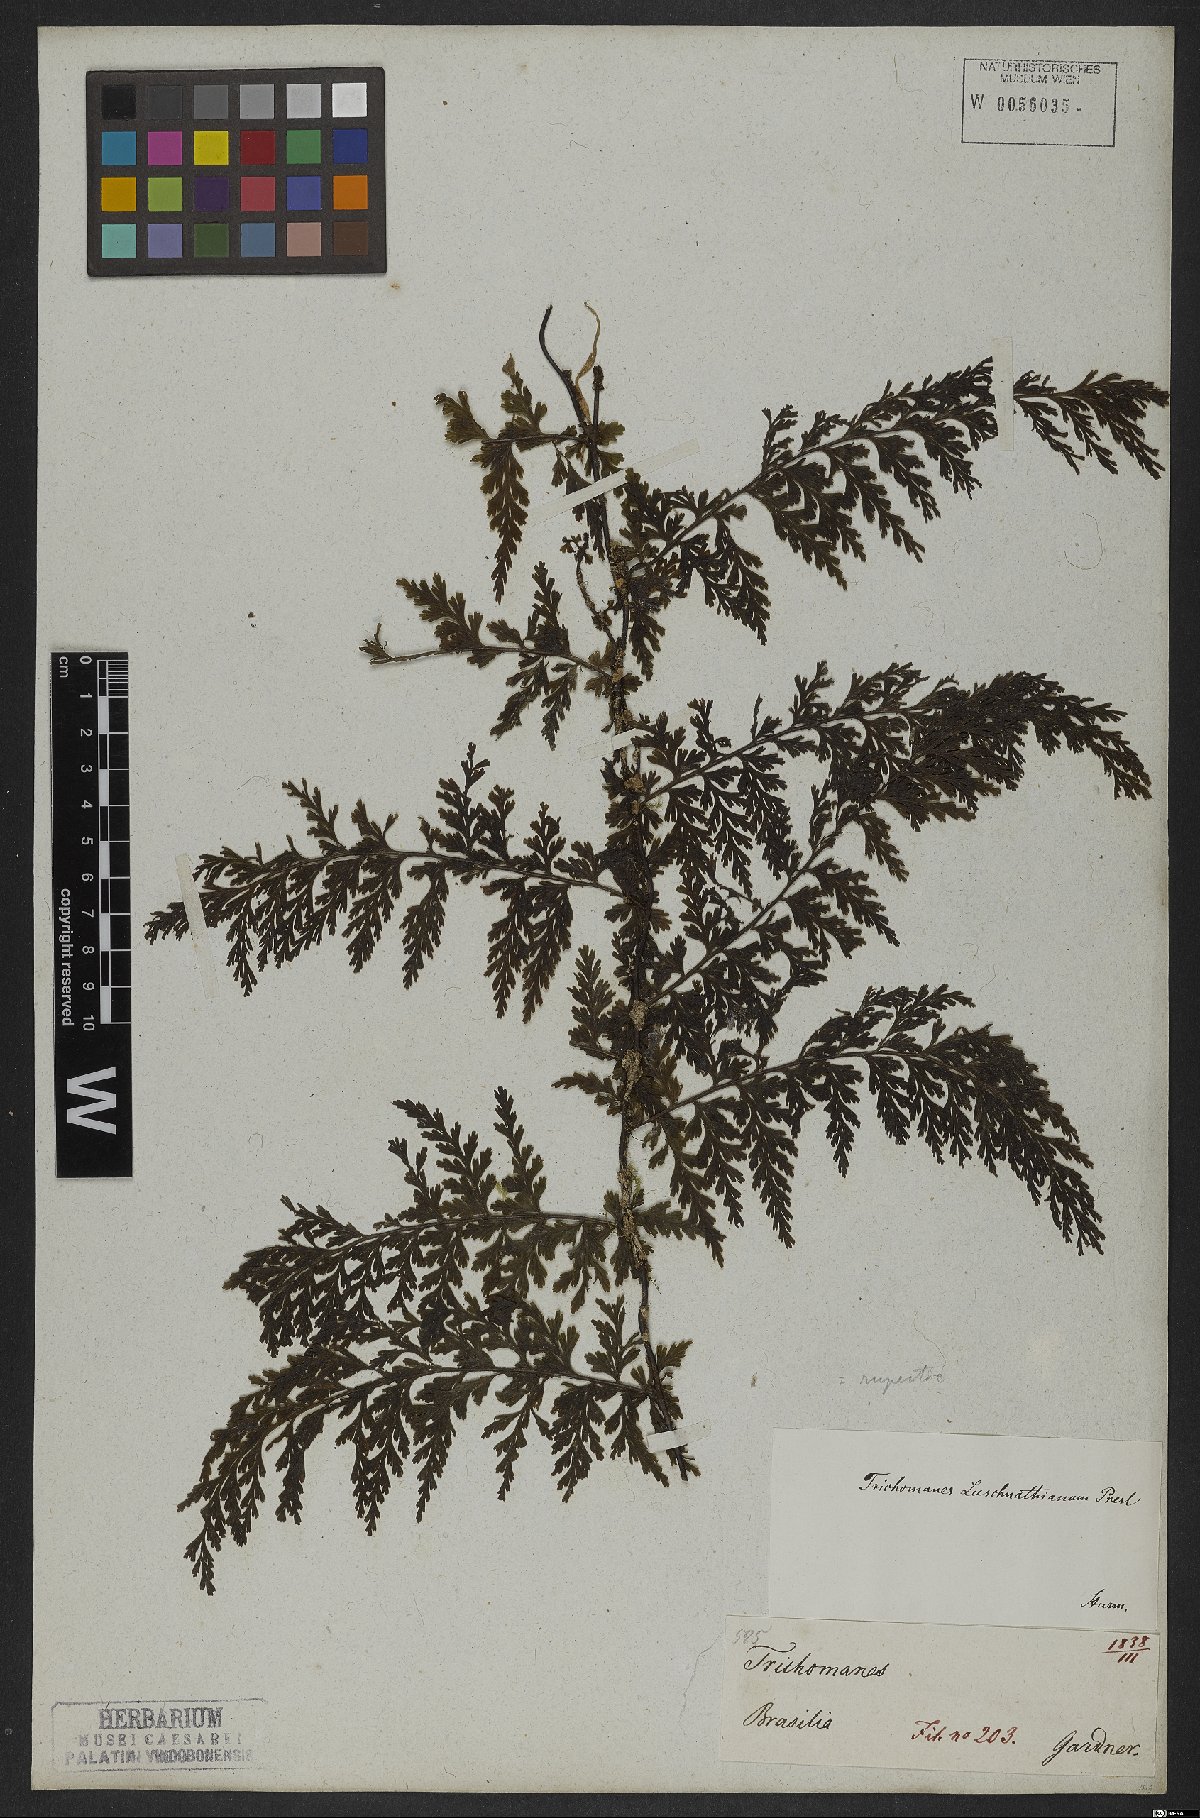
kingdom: Plantae
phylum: Tracheophyta
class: Polypodiopsida
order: Hymenophyllales
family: Hymenophyllaceae
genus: Vandenboschia
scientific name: Vandenboschia rupestris
